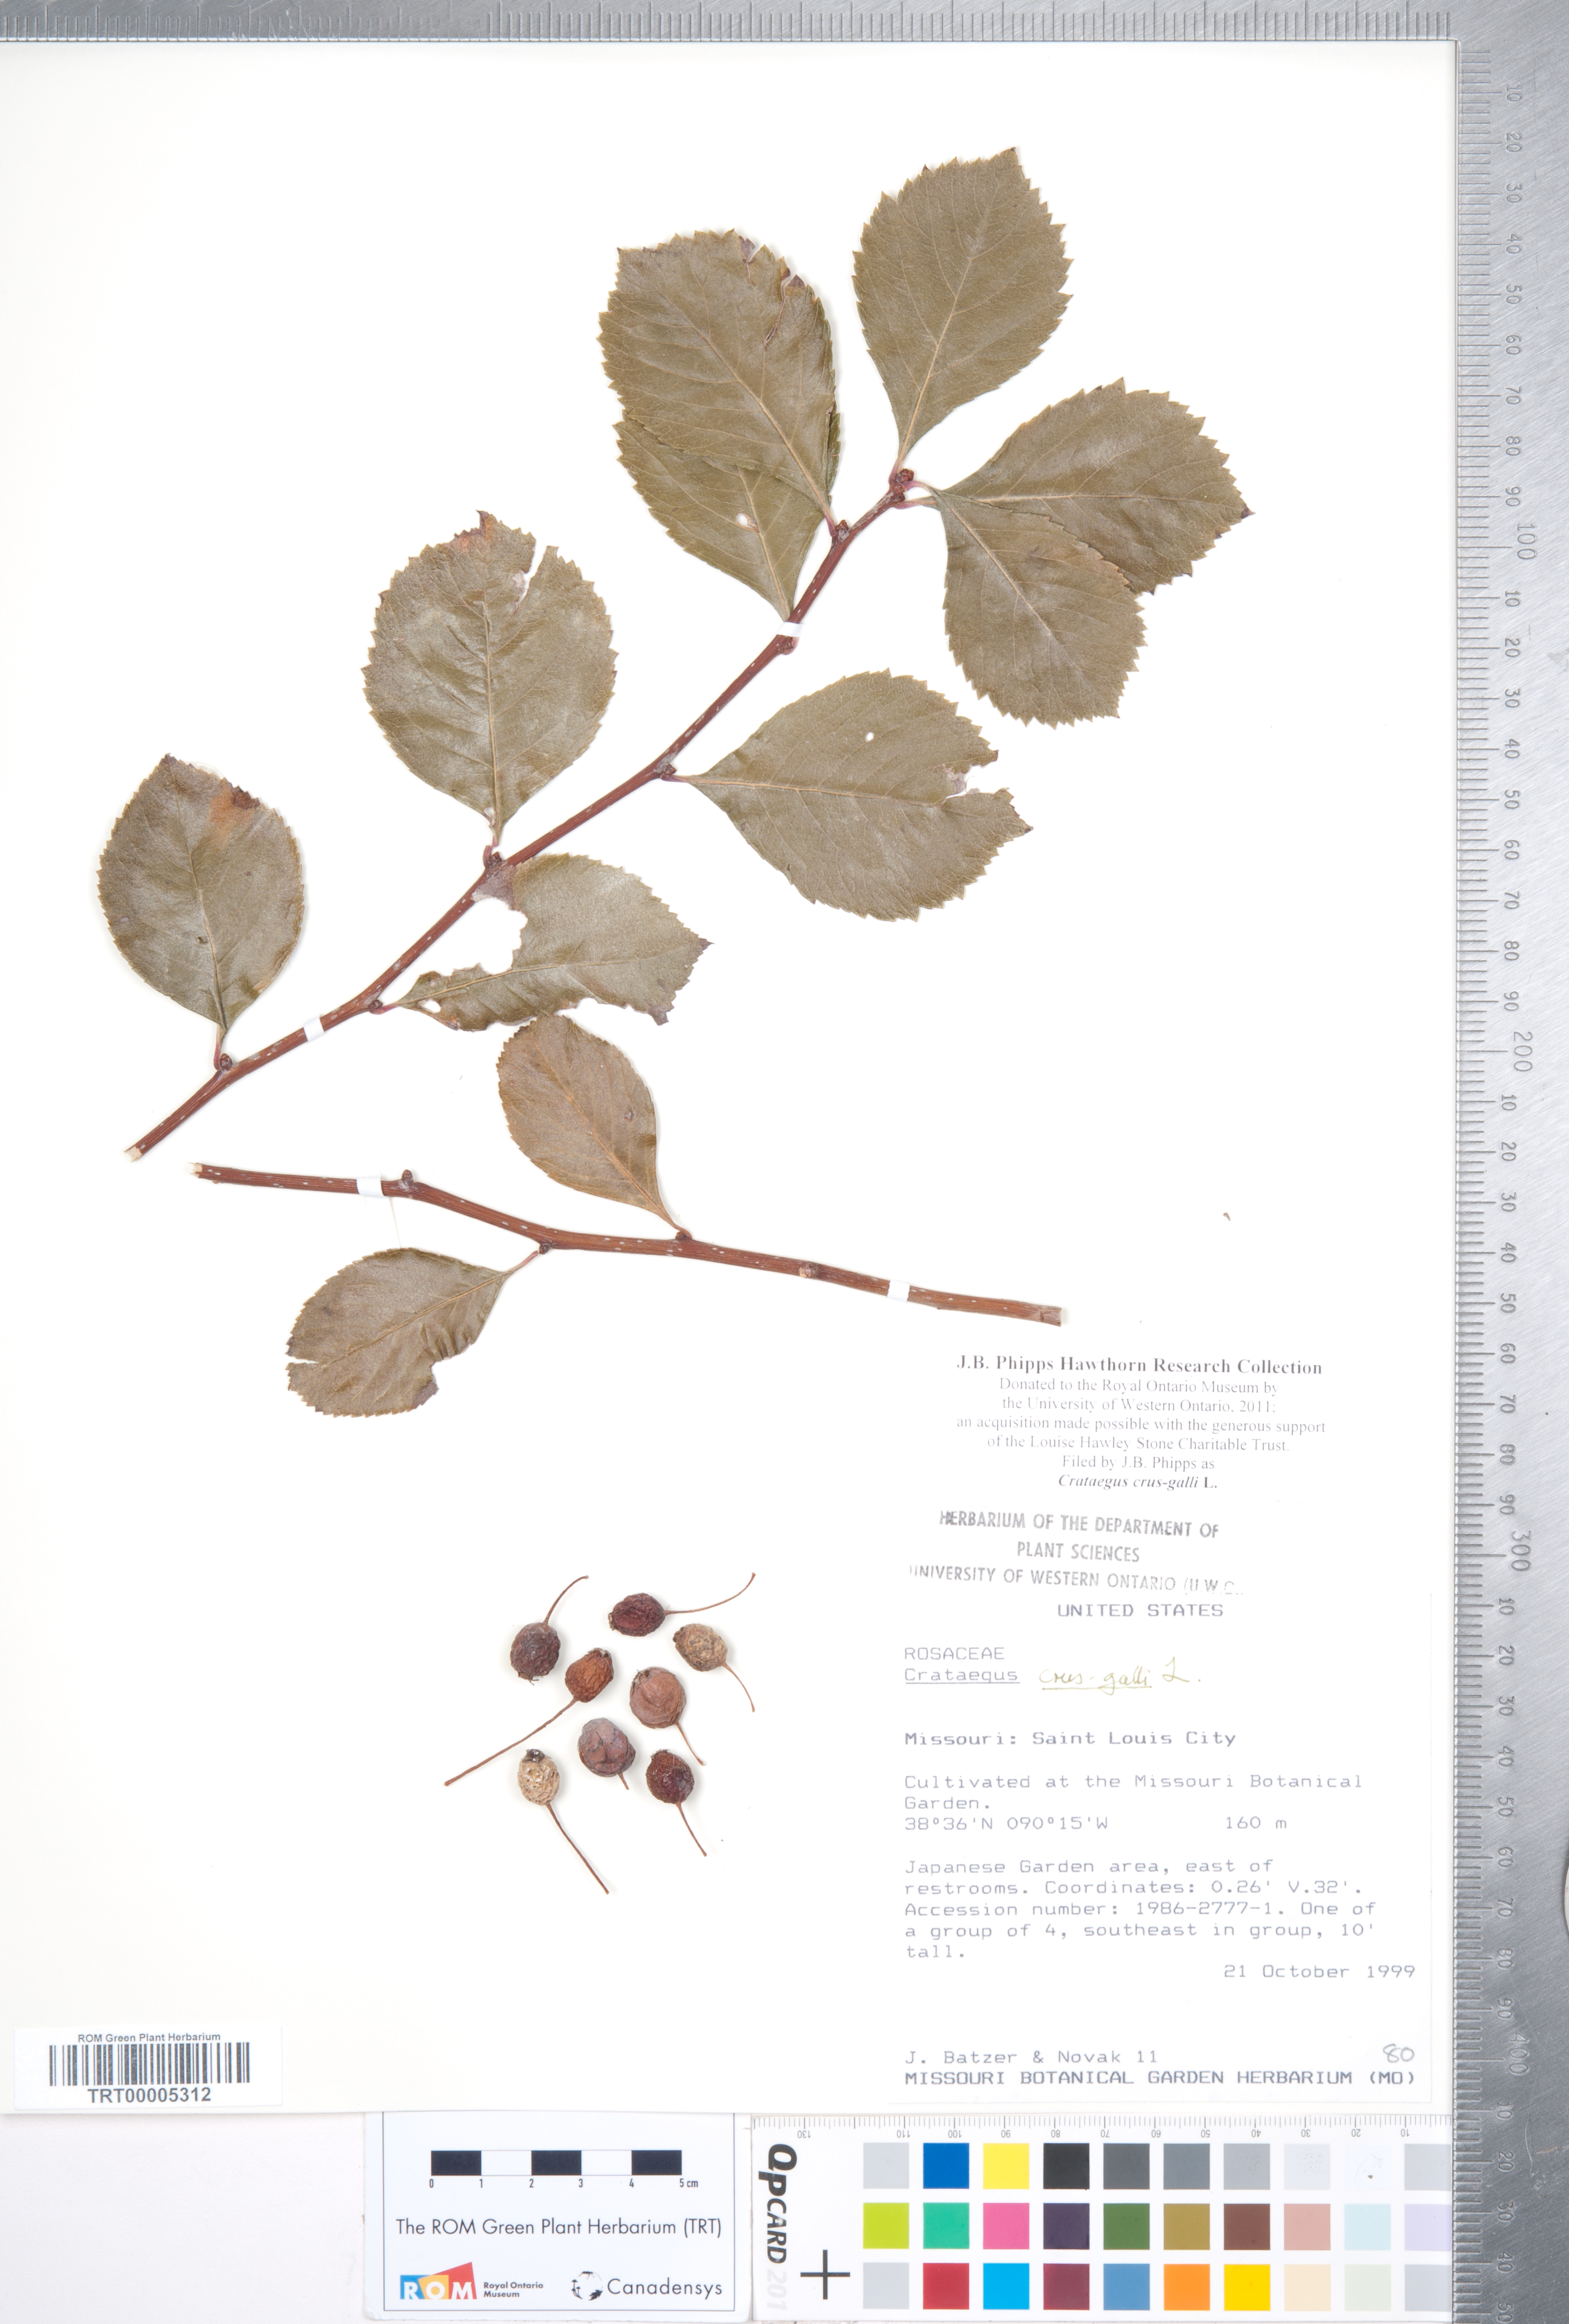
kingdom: Plantae
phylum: Tracheophyta
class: Magnoliopsida
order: Rosales
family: Rosaceae
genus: Crataegus
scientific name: Crataegus crus-galli
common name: Cockspurthorn
